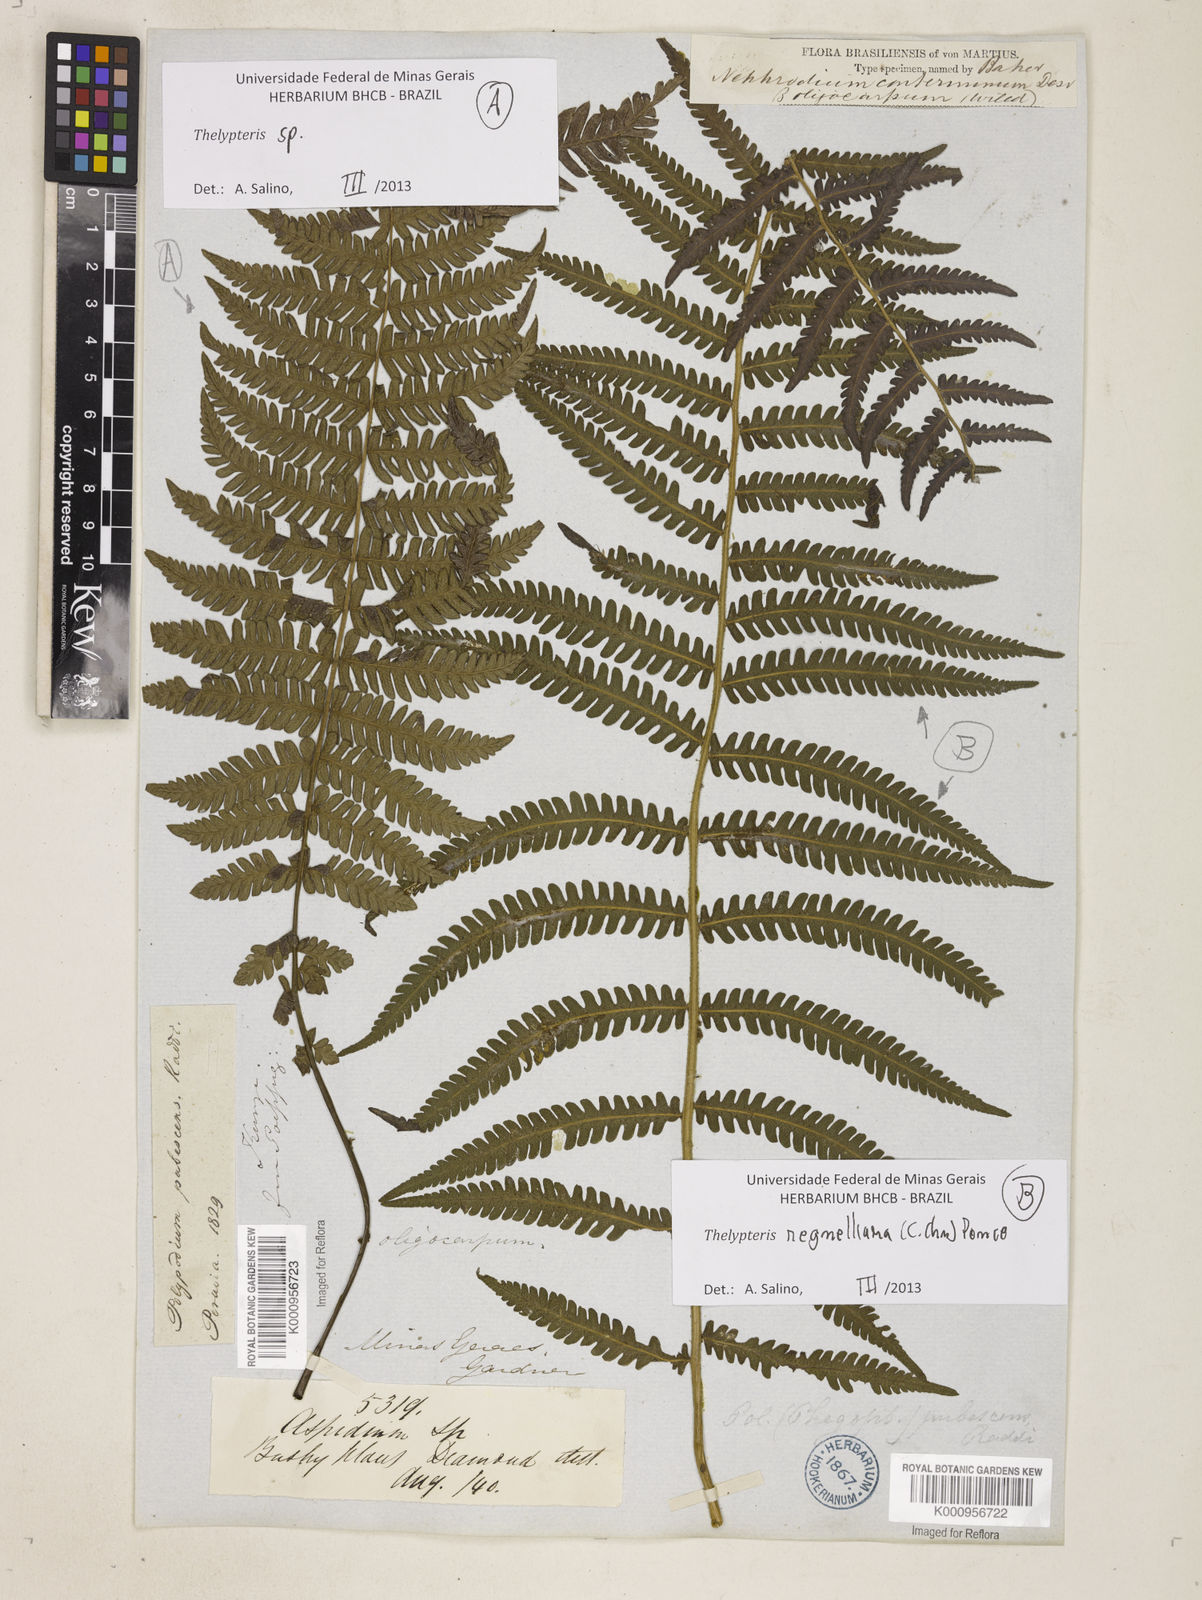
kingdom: Plantae
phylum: Tracheophyta
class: Polypodiopsida
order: Polypodiales
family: Thelypteridaceae
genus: Amauropelta
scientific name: Amauropelta
